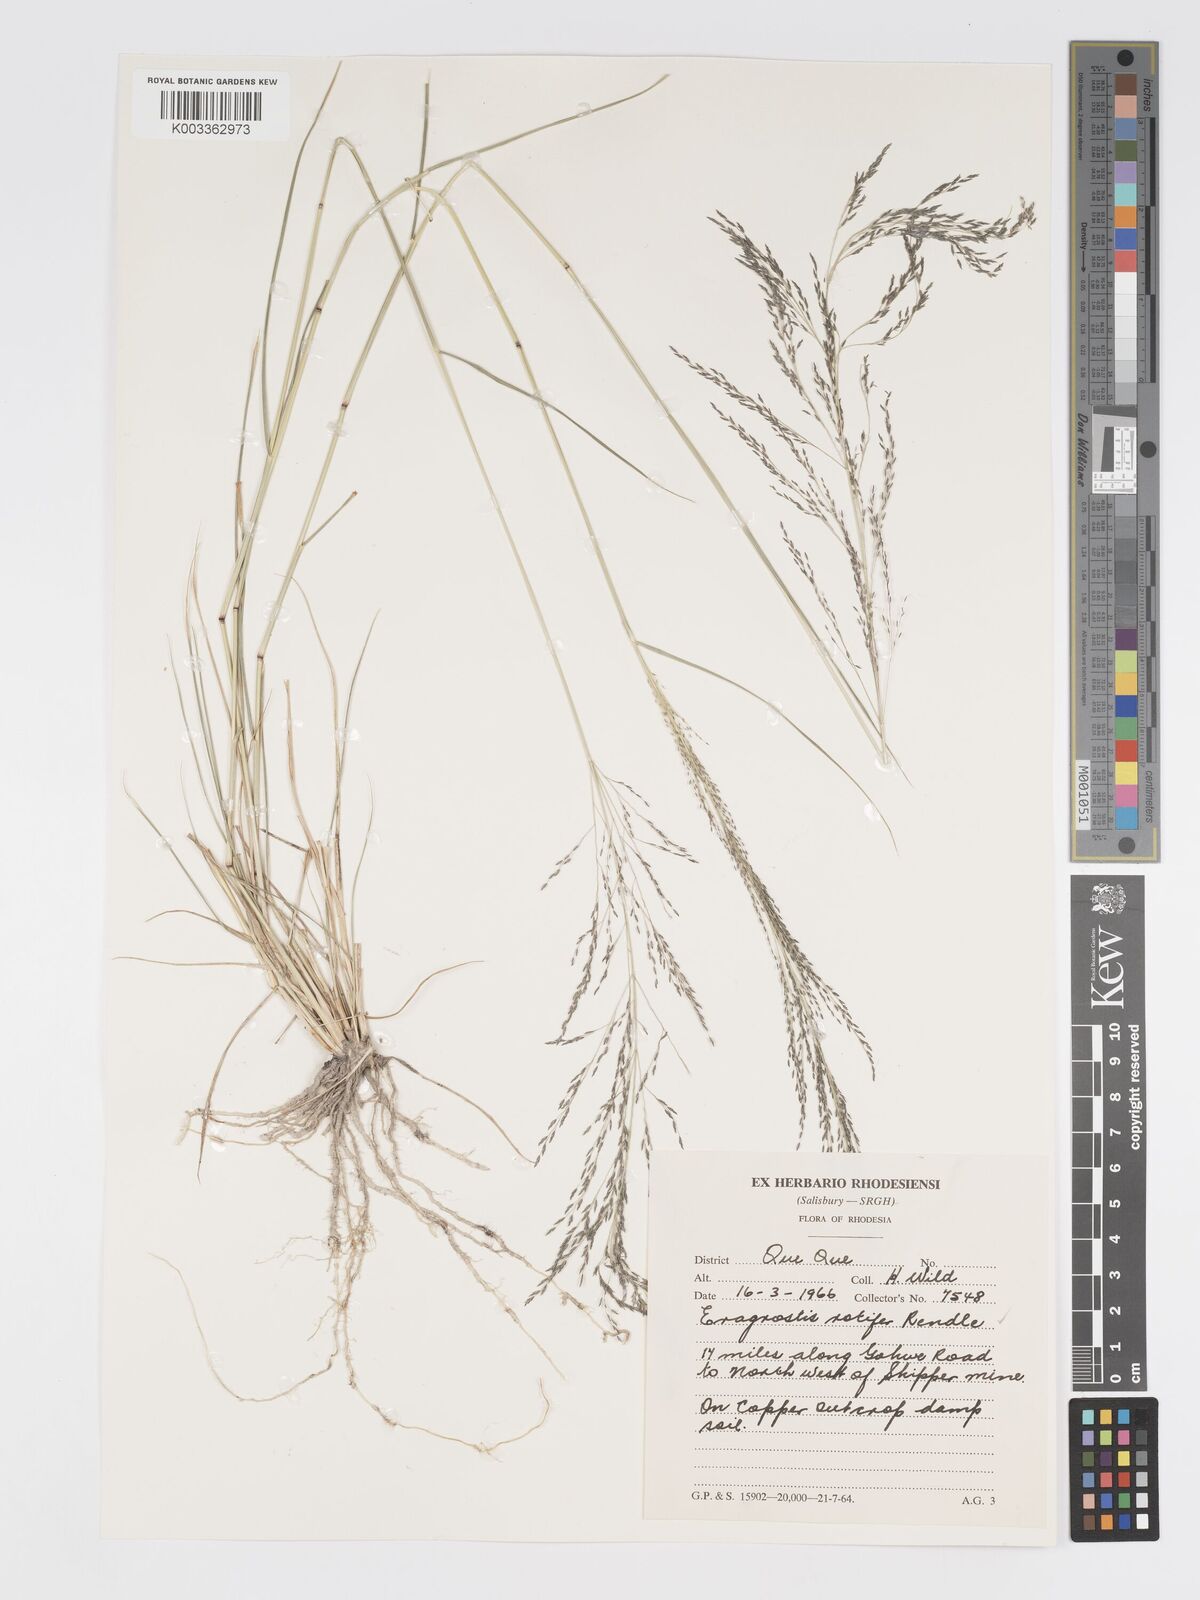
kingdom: Plantae
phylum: Tracheophyta
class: Liliopsida
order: Poales
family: Poaceae
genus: Eragrostis
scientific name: Eragrostis cylindriflora
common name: Cylinderflower lovegrass
